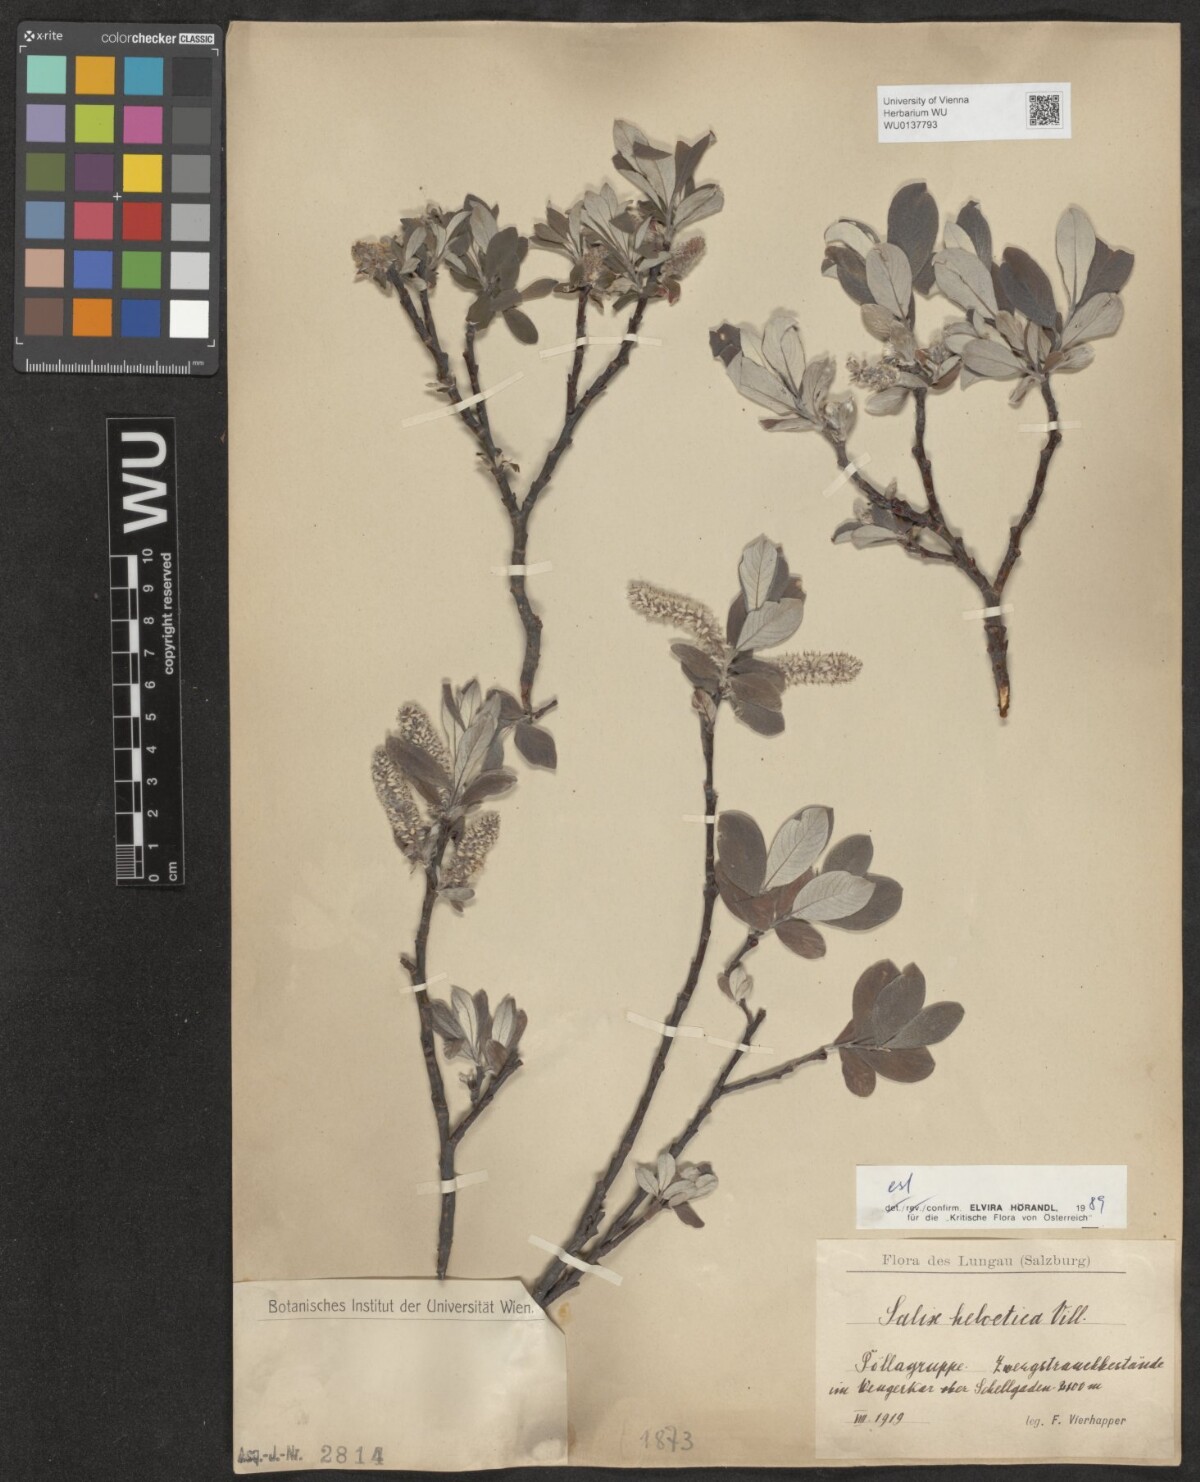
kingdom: Plantae
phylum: Tracheophyta
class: Magnoliopsida
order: Malpighiales
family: Salicaceae
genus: Salix
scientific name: Salix helvetica
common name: Swiss willow
